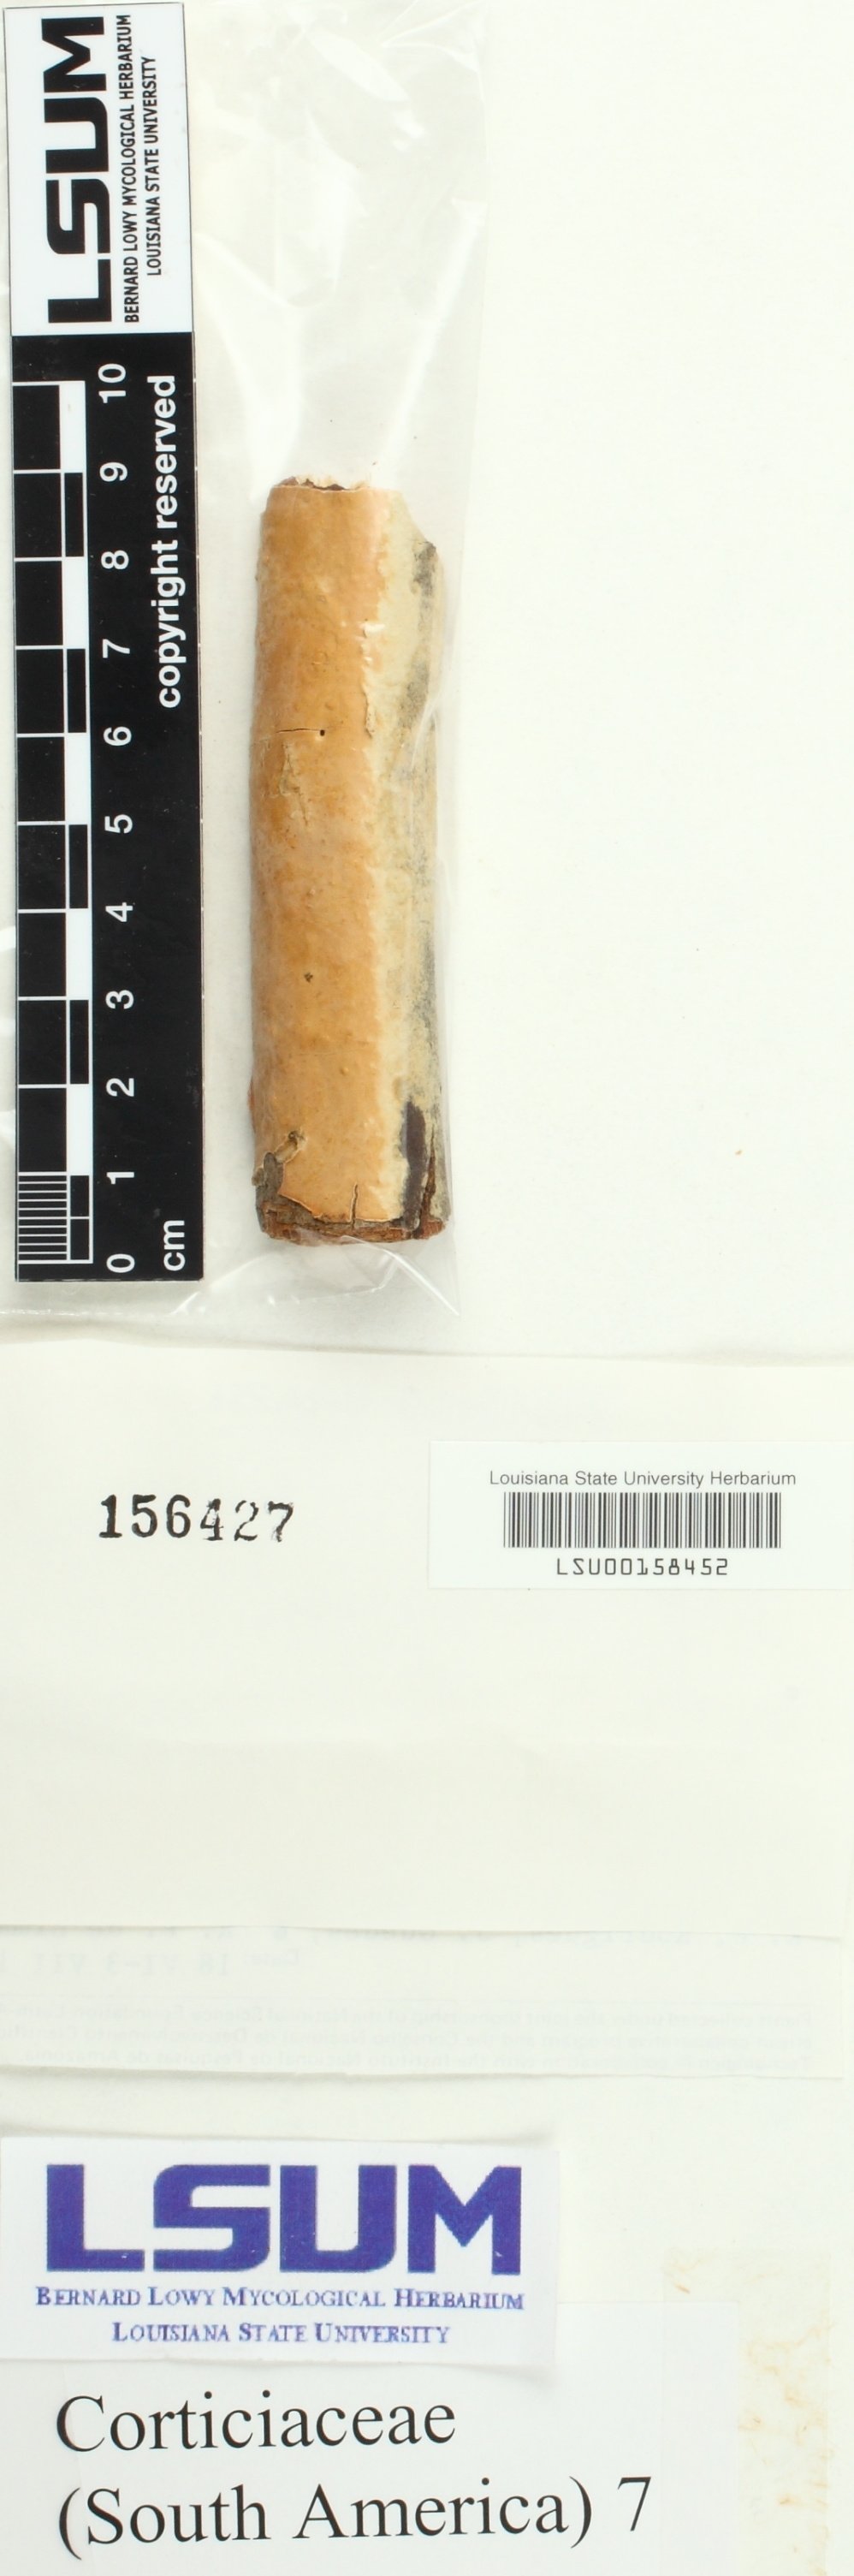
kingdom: Fungi
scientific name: Fungi
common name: Fungi
